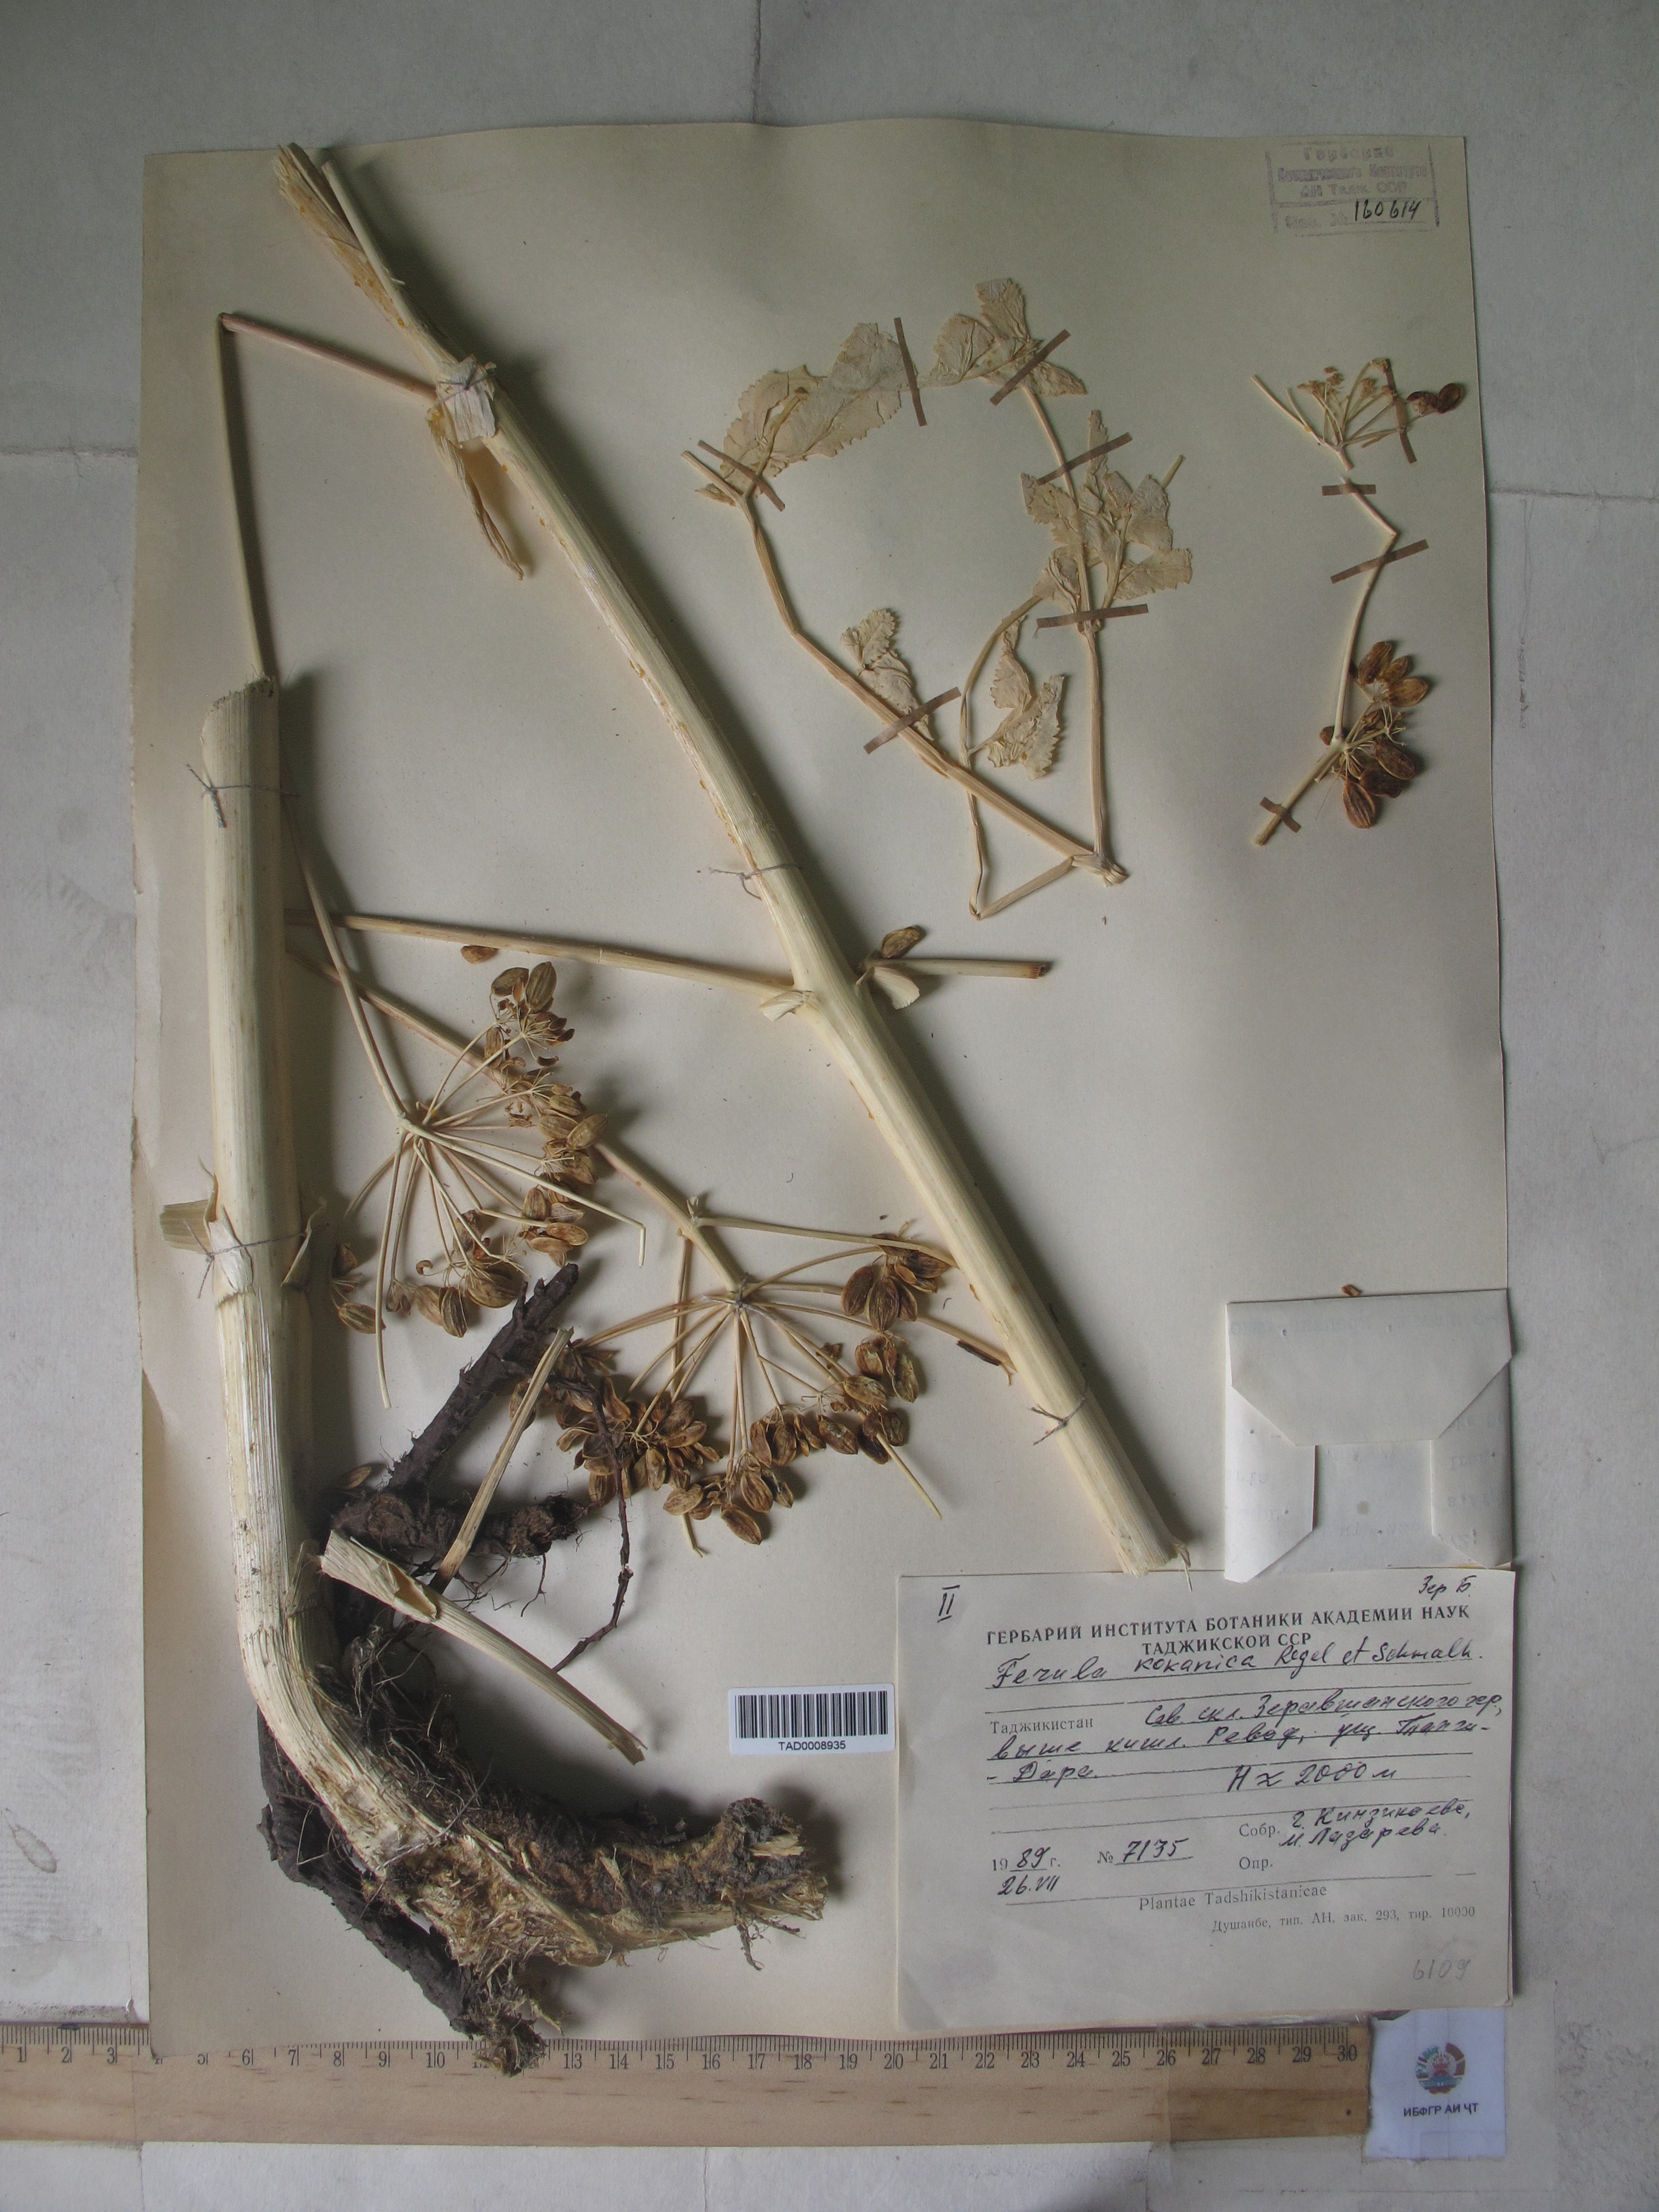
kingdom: Plantae
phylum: Tracheophyta
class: Magnoliopsida
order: Apiales
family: Apiaceae
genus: Ferula
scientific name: Ferula kokanica
